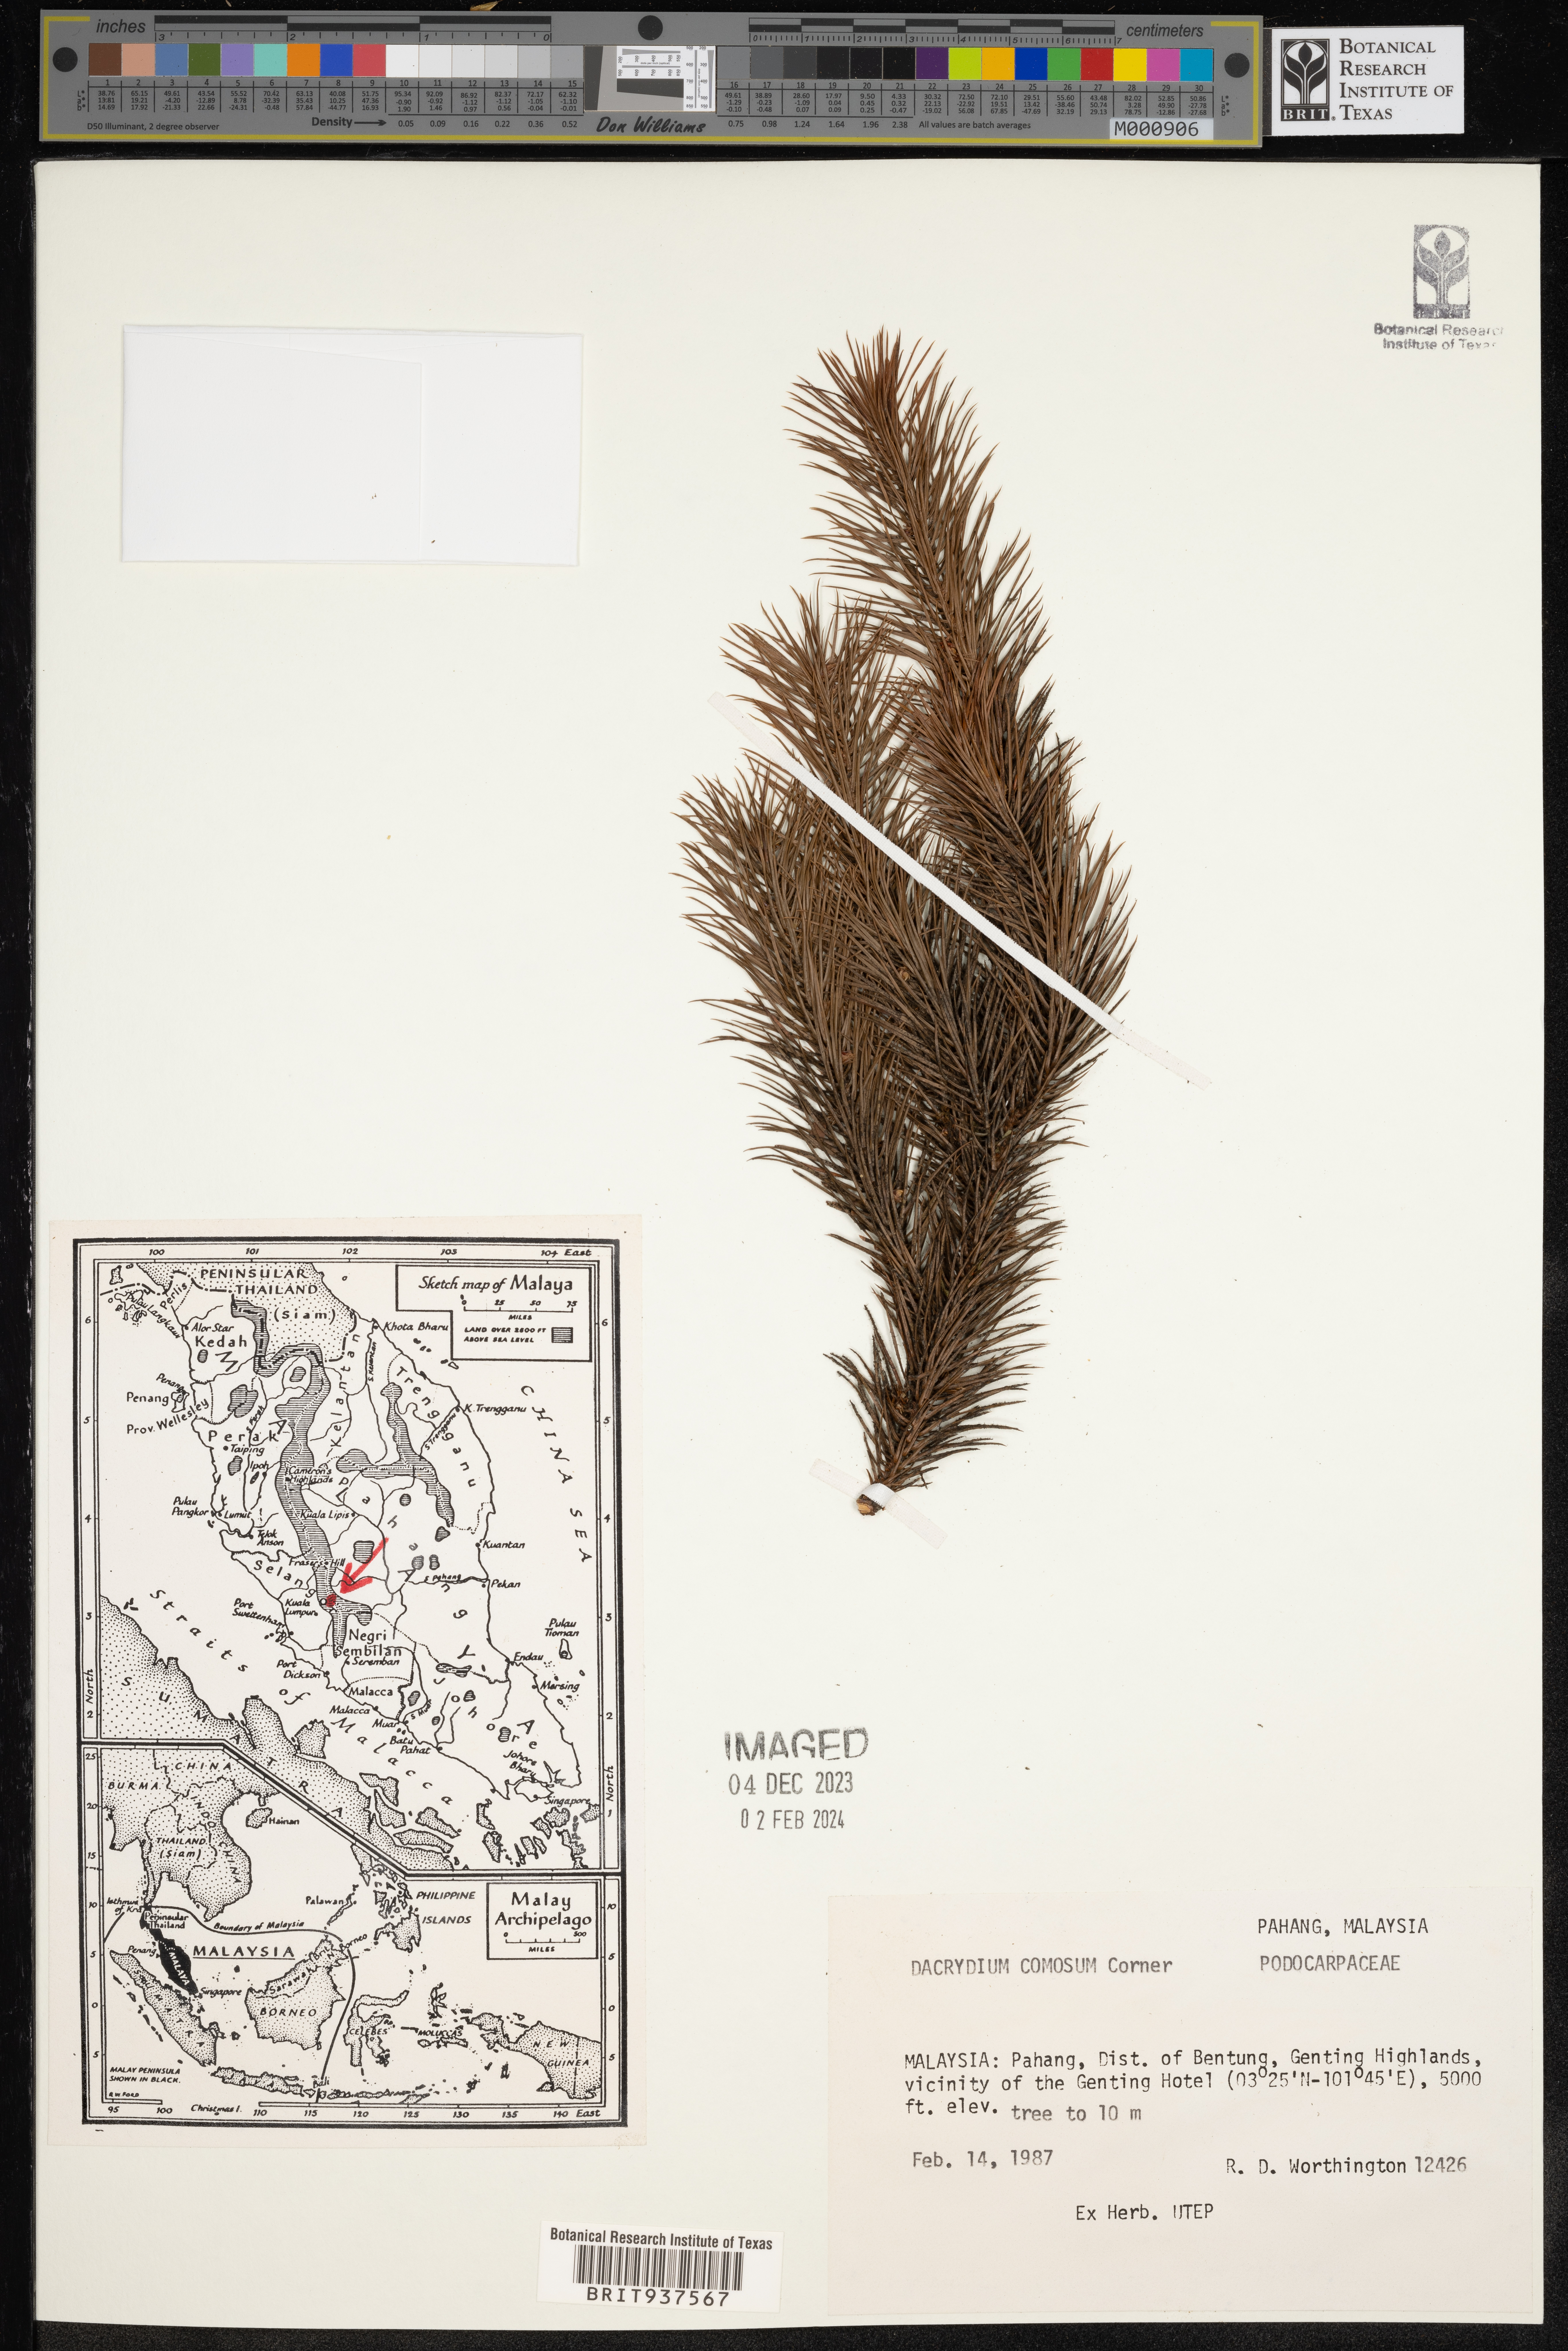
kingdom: Plantae
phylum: Tracheophyta
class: Pinopsida
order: Pinales
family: Podocarpaceae
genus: Dacrydium
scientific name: Dacrydium
